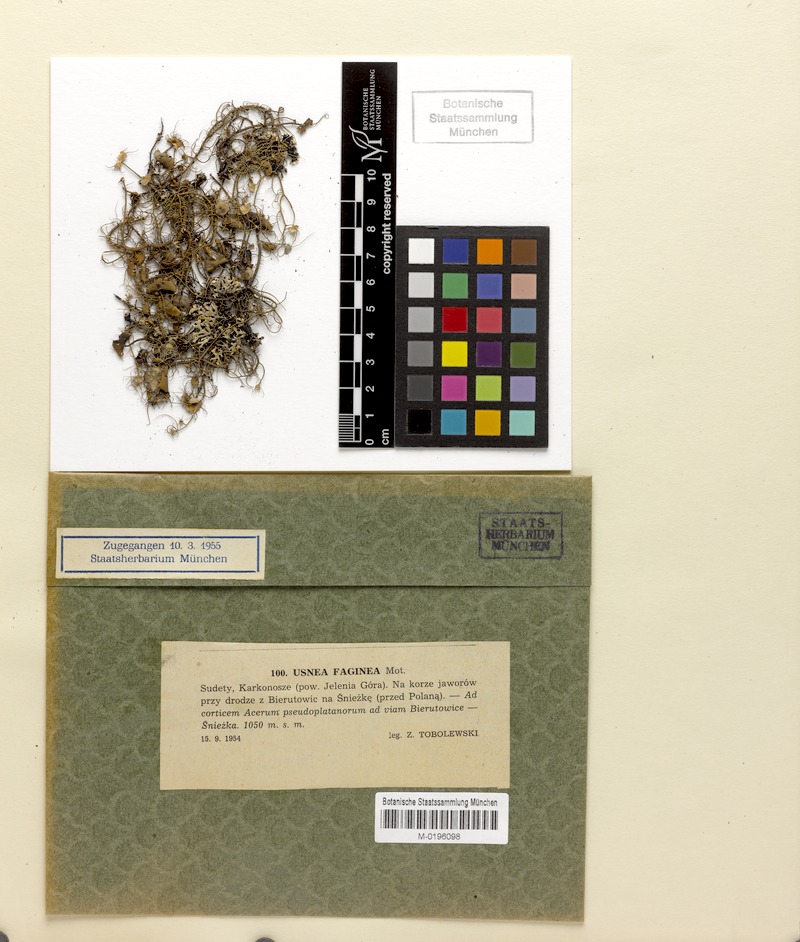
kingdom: Fungi
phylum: Ascomycota
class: Lecanoromycetes
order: Lecanorales
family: Parmeliaceae
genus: Usnea
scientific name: Usnea quasirigida
